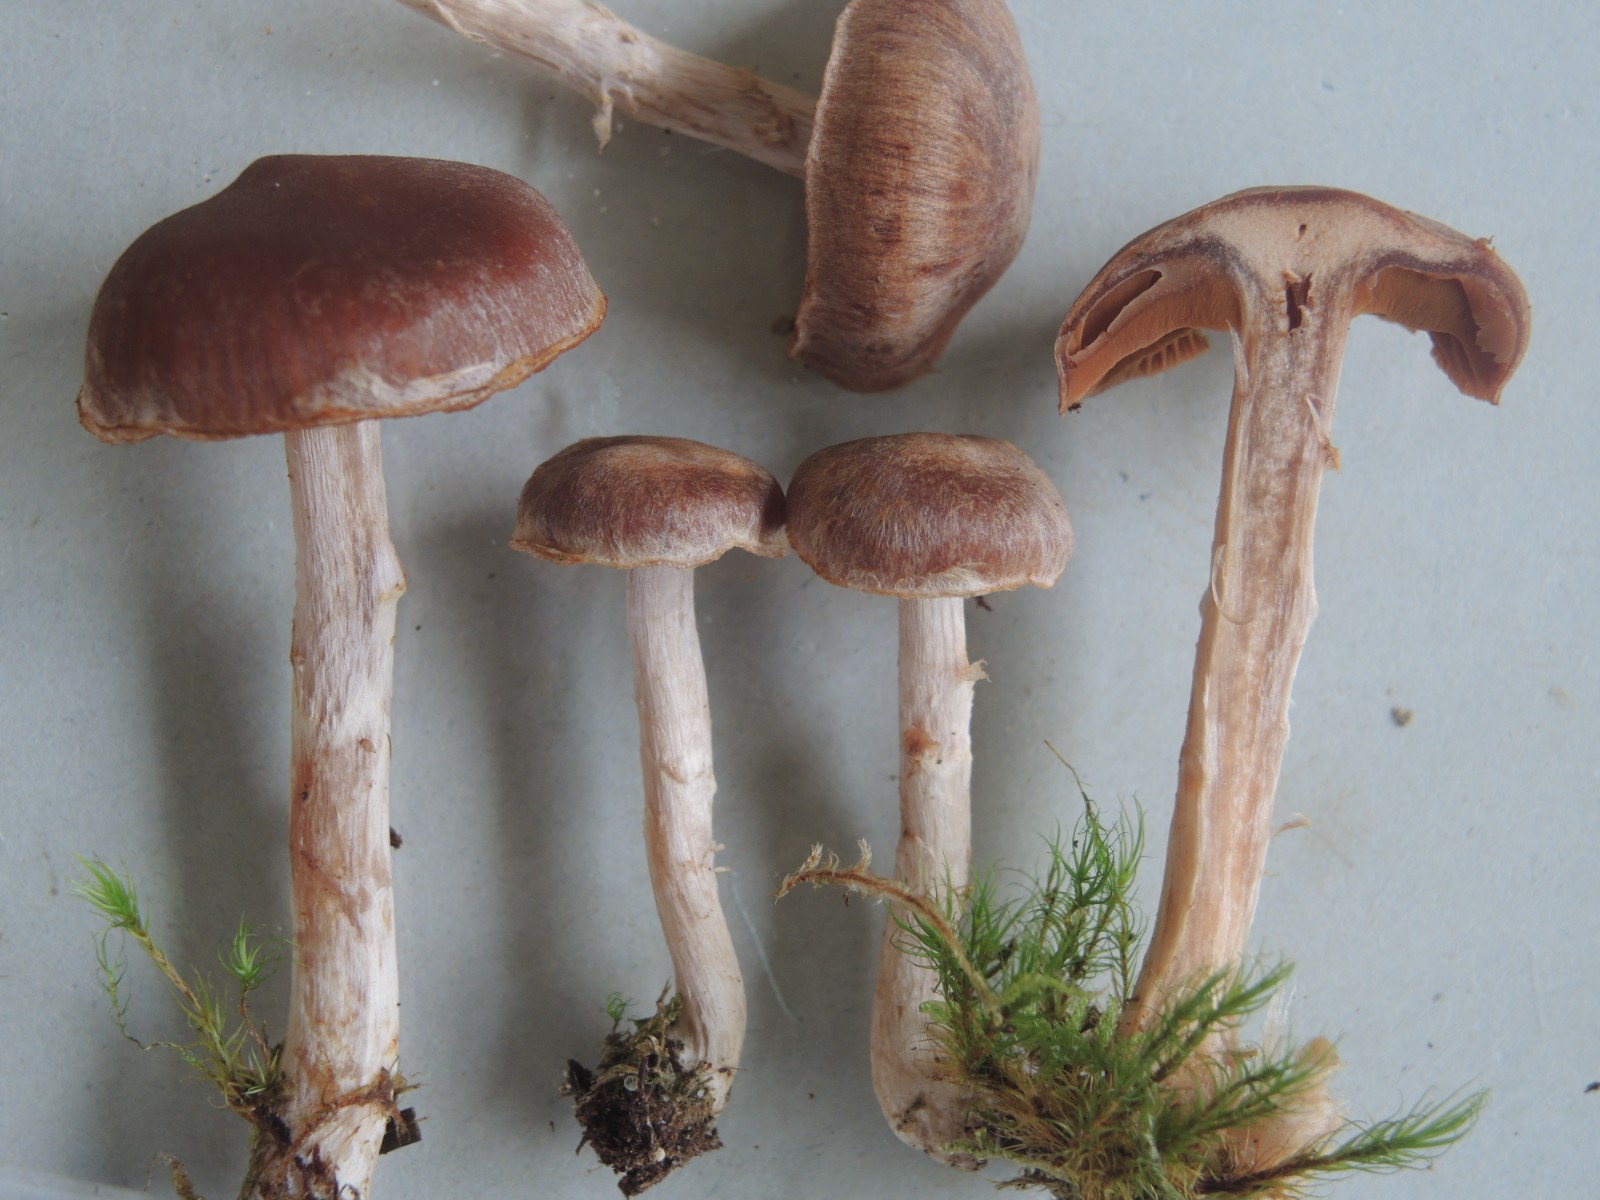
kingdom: Fungi
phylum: Basidiomycota
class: Agaricomycetes
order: Agaricales
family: Cortinariaceae
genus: Cortinarius
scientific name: Cortinarius
